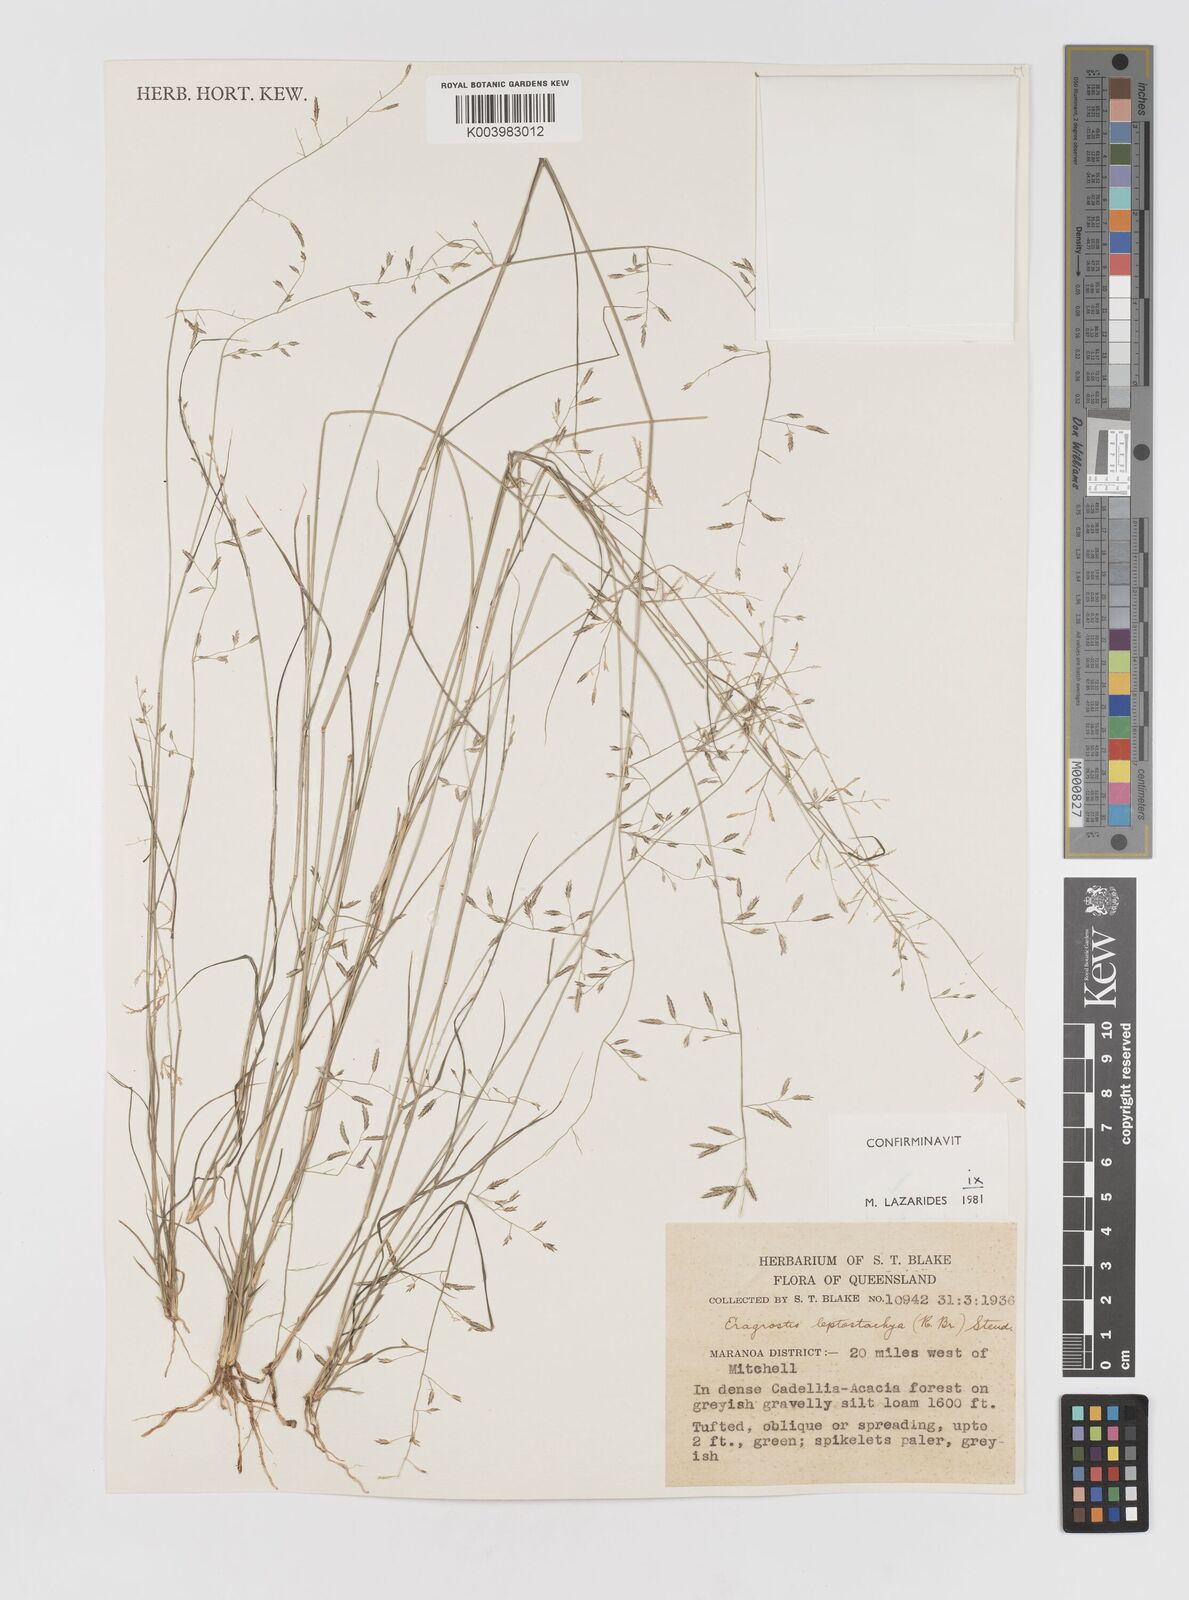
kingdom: Plantae
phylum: Tracheophyta
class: Liliopsida
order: Poales
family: Poaceae
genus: Eragrostis
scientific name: Eragrostis leptostachya
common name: Australian lovegrass
